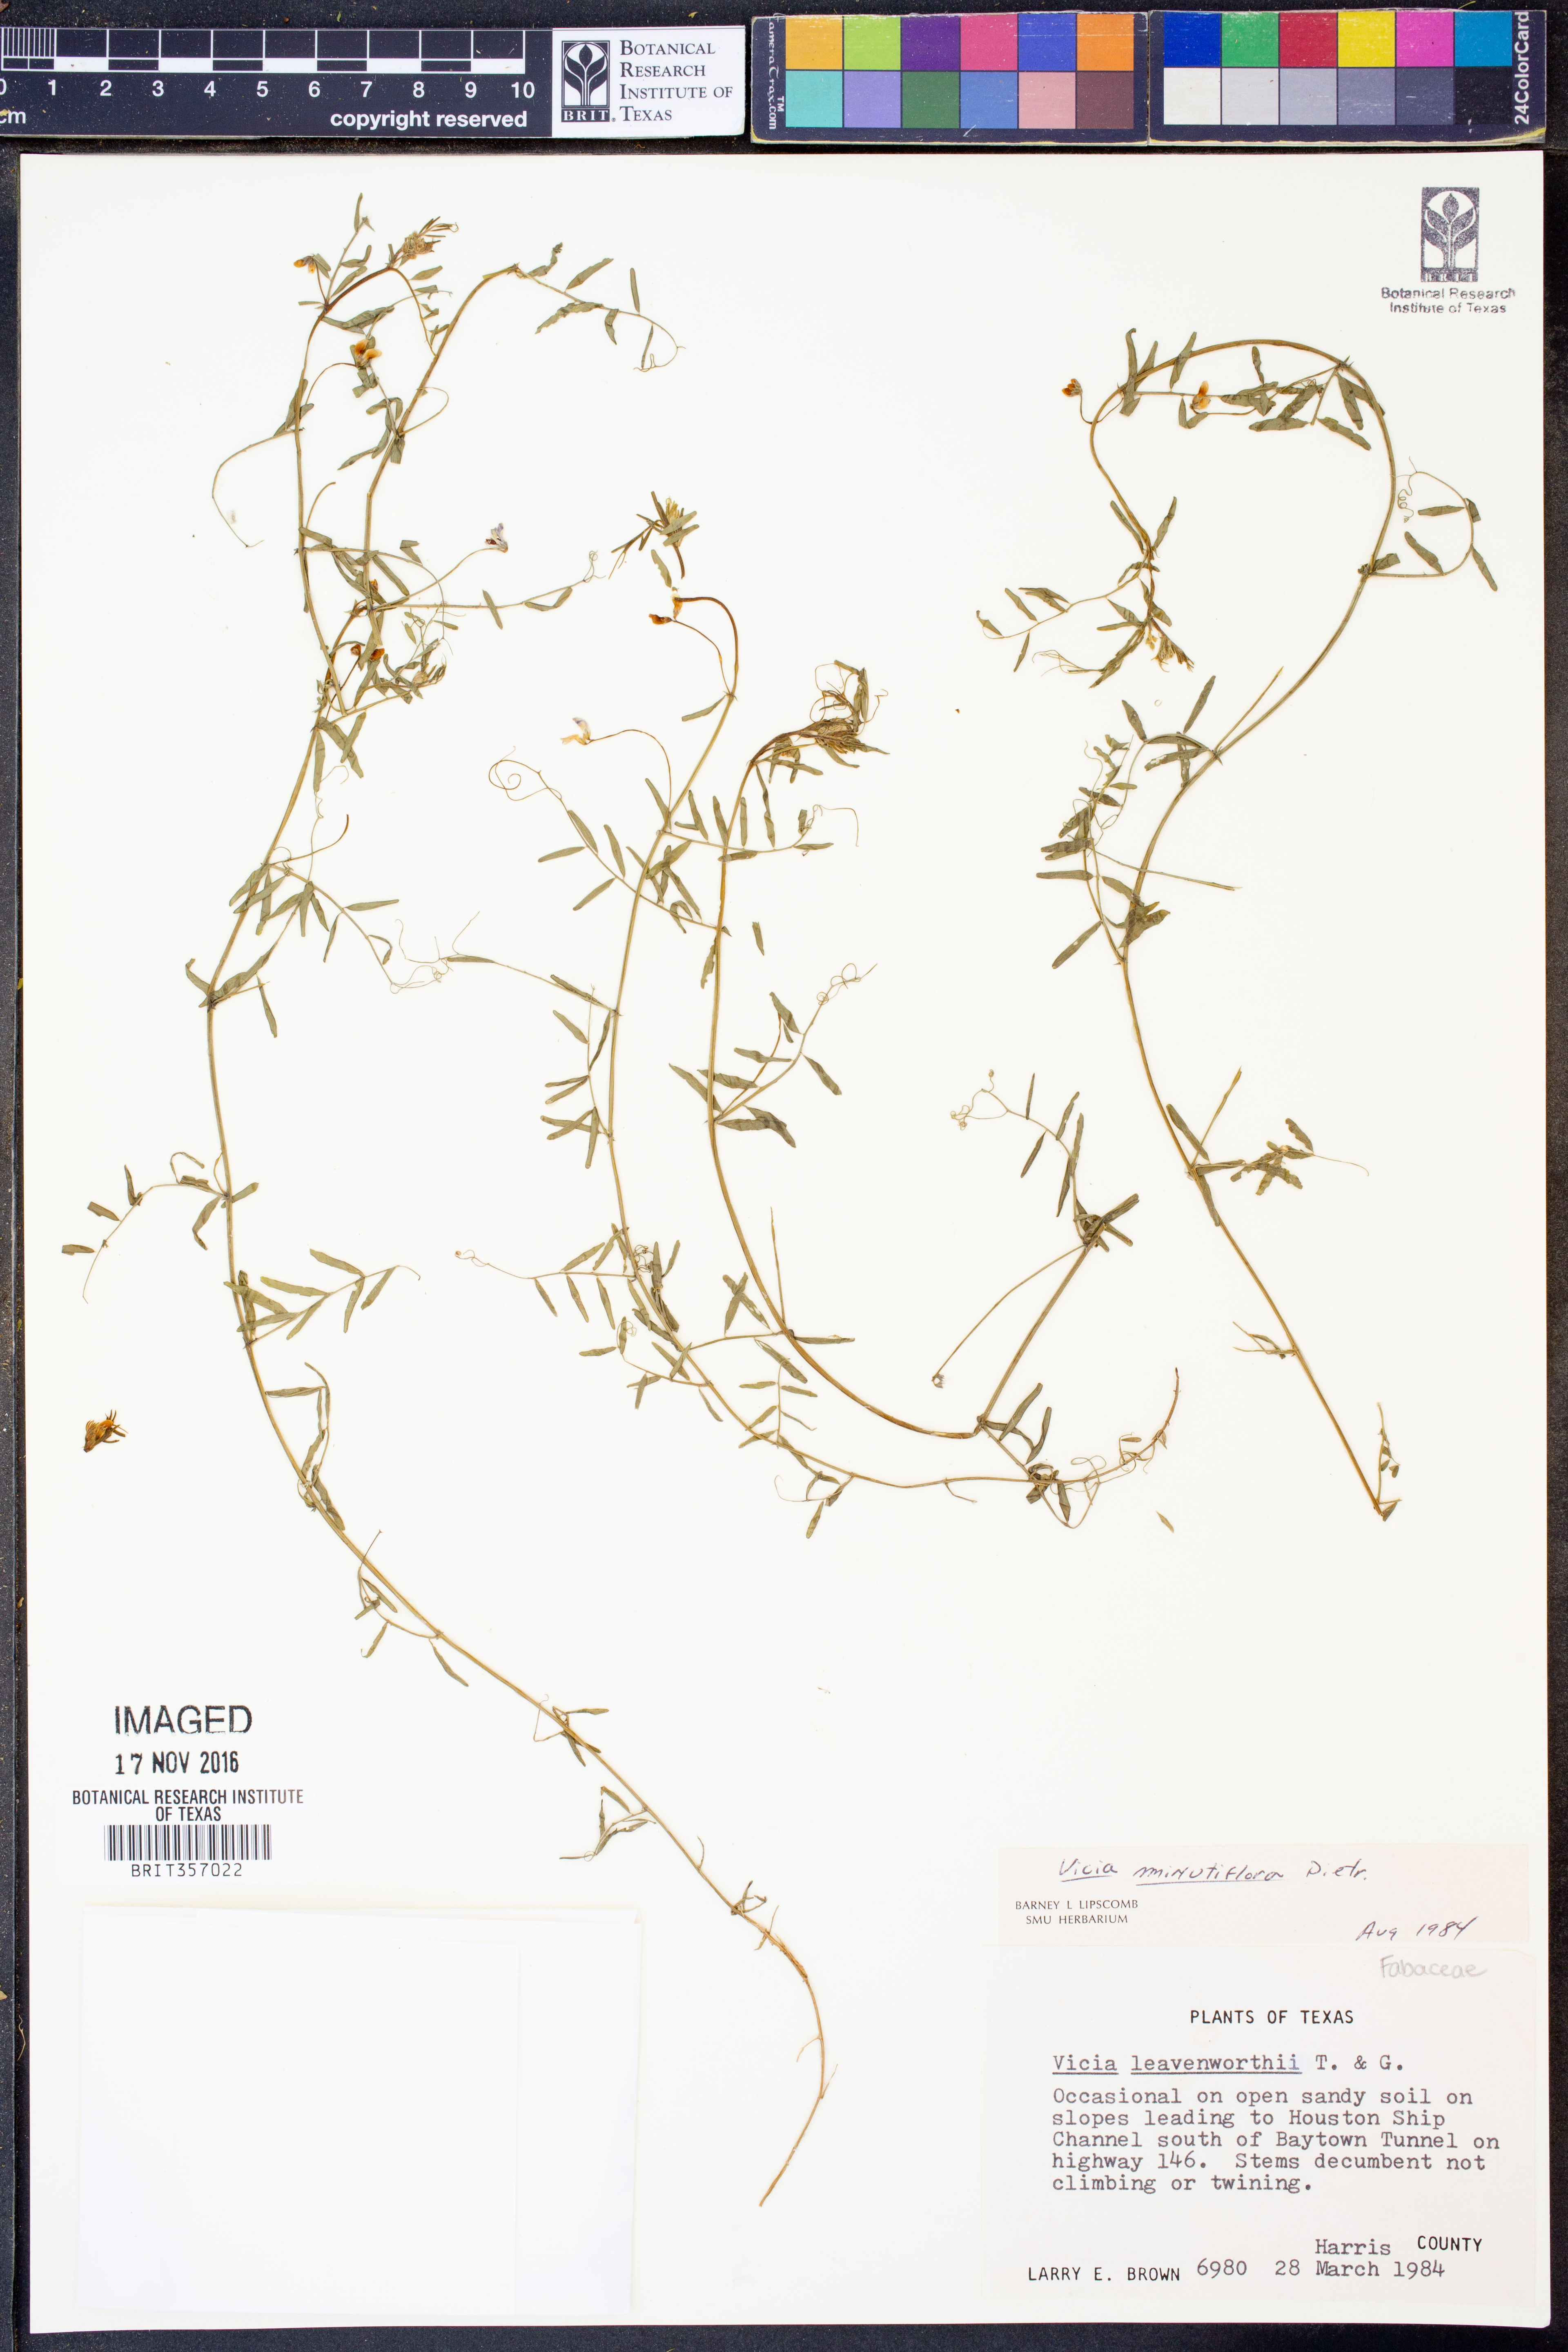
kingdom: Plantae
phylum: Tracheophyta
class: Magnoliopsida
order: Fabales
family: Fabaceae
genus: Vicia
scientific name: Vicia minutiflora
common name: Pygmy-flower vetch
